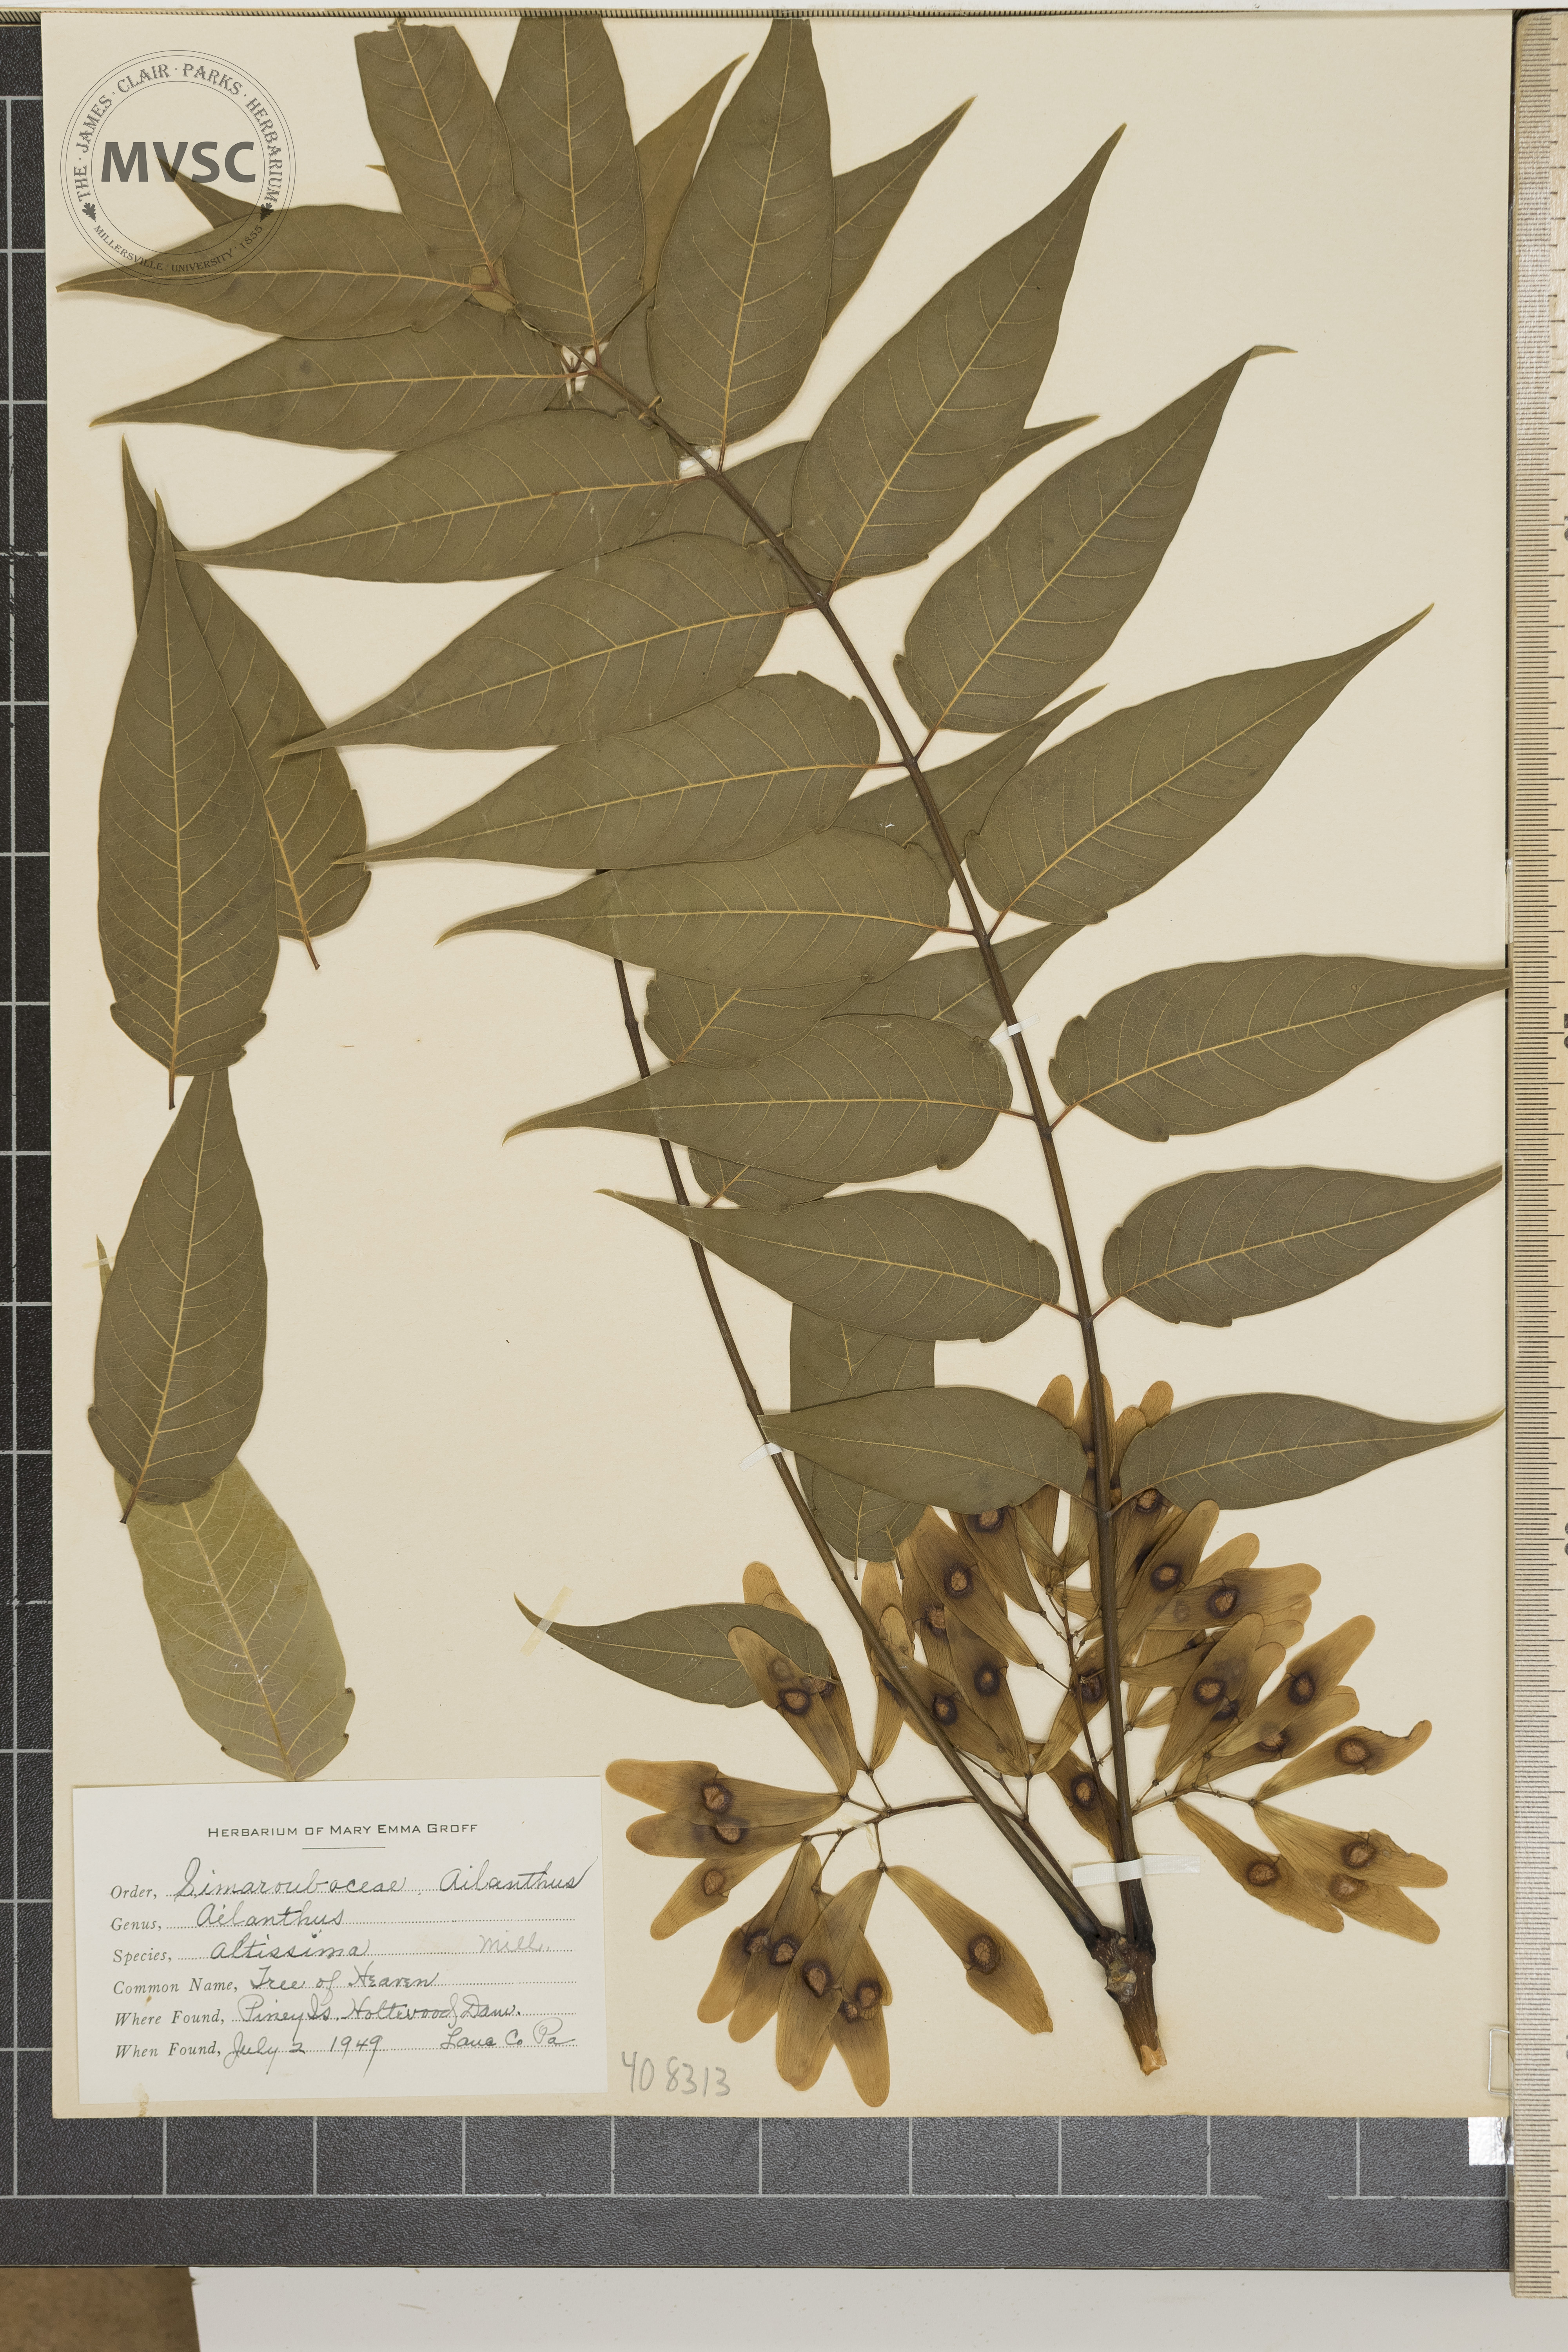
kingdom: Plantae
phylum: Tracheophyta
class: Magnoliopsida
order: Sapindales
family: Simaroubaceae
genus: Ailanthus
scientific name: Ailanthus altissima
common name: tree of heaven
